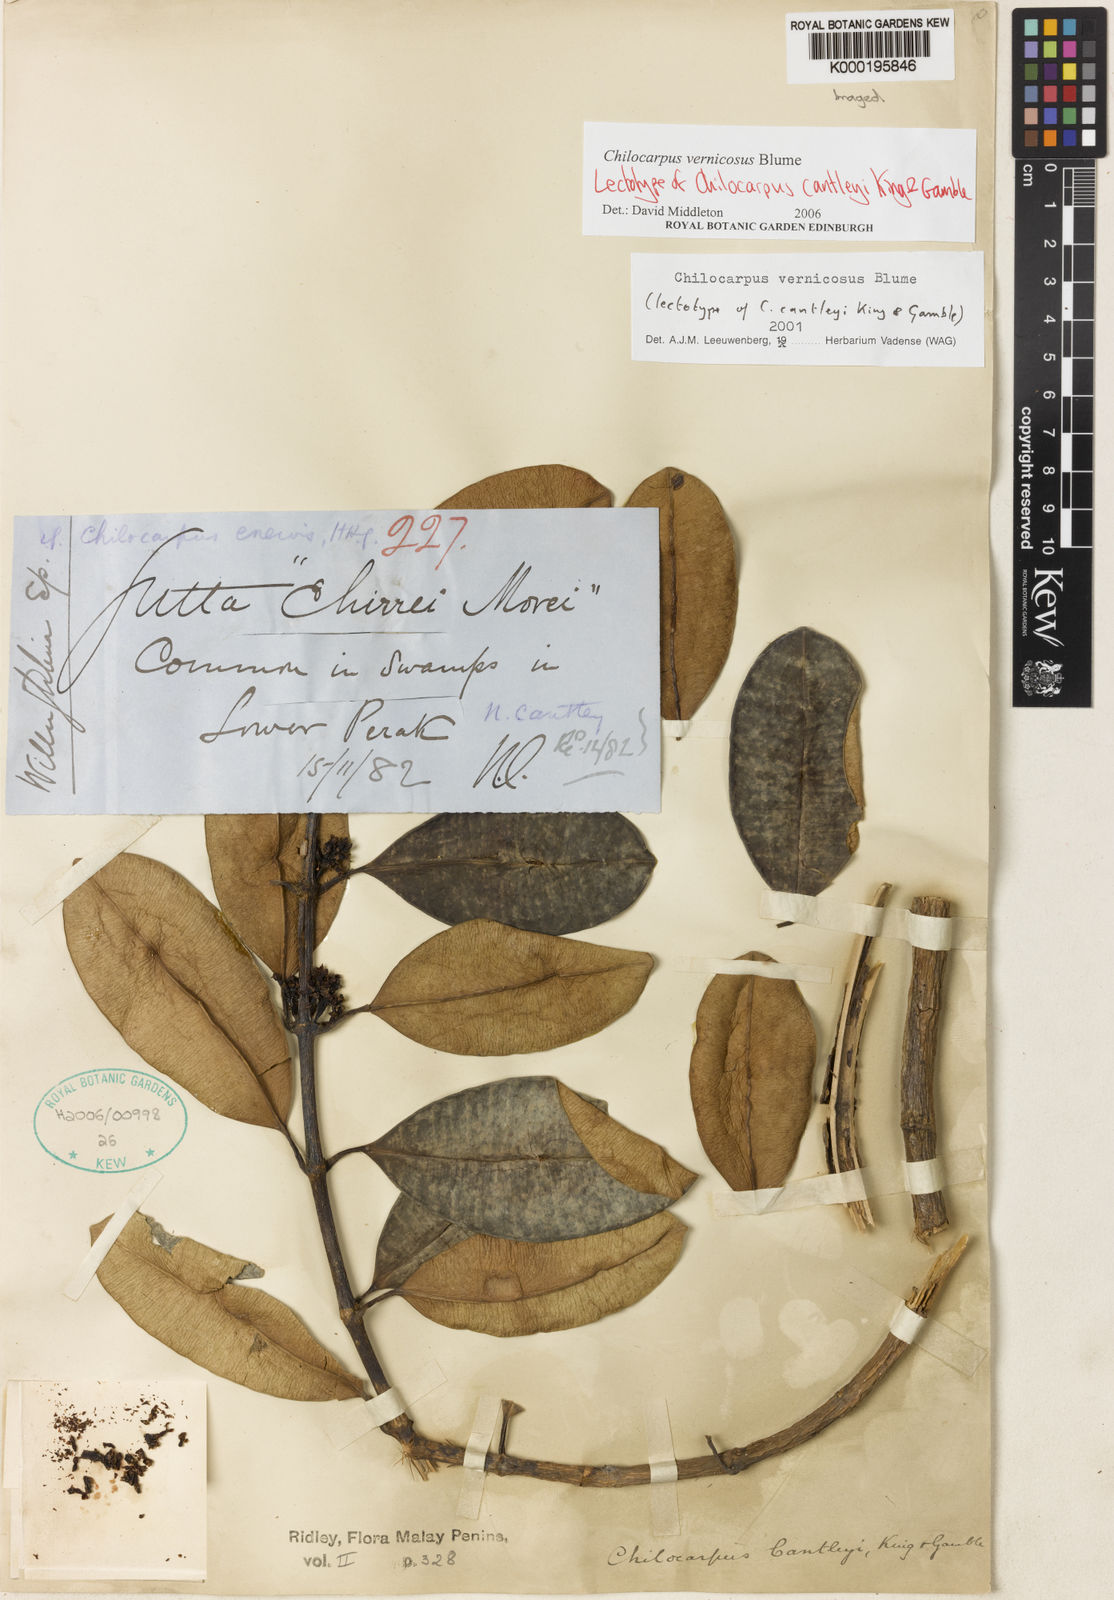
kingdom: Plantae
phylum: Tracheophyta
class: Magnoliopsida
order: Gentianales
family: Apocynaceae
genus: Chilocarpus
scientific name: Chilocarpus vernicosus
